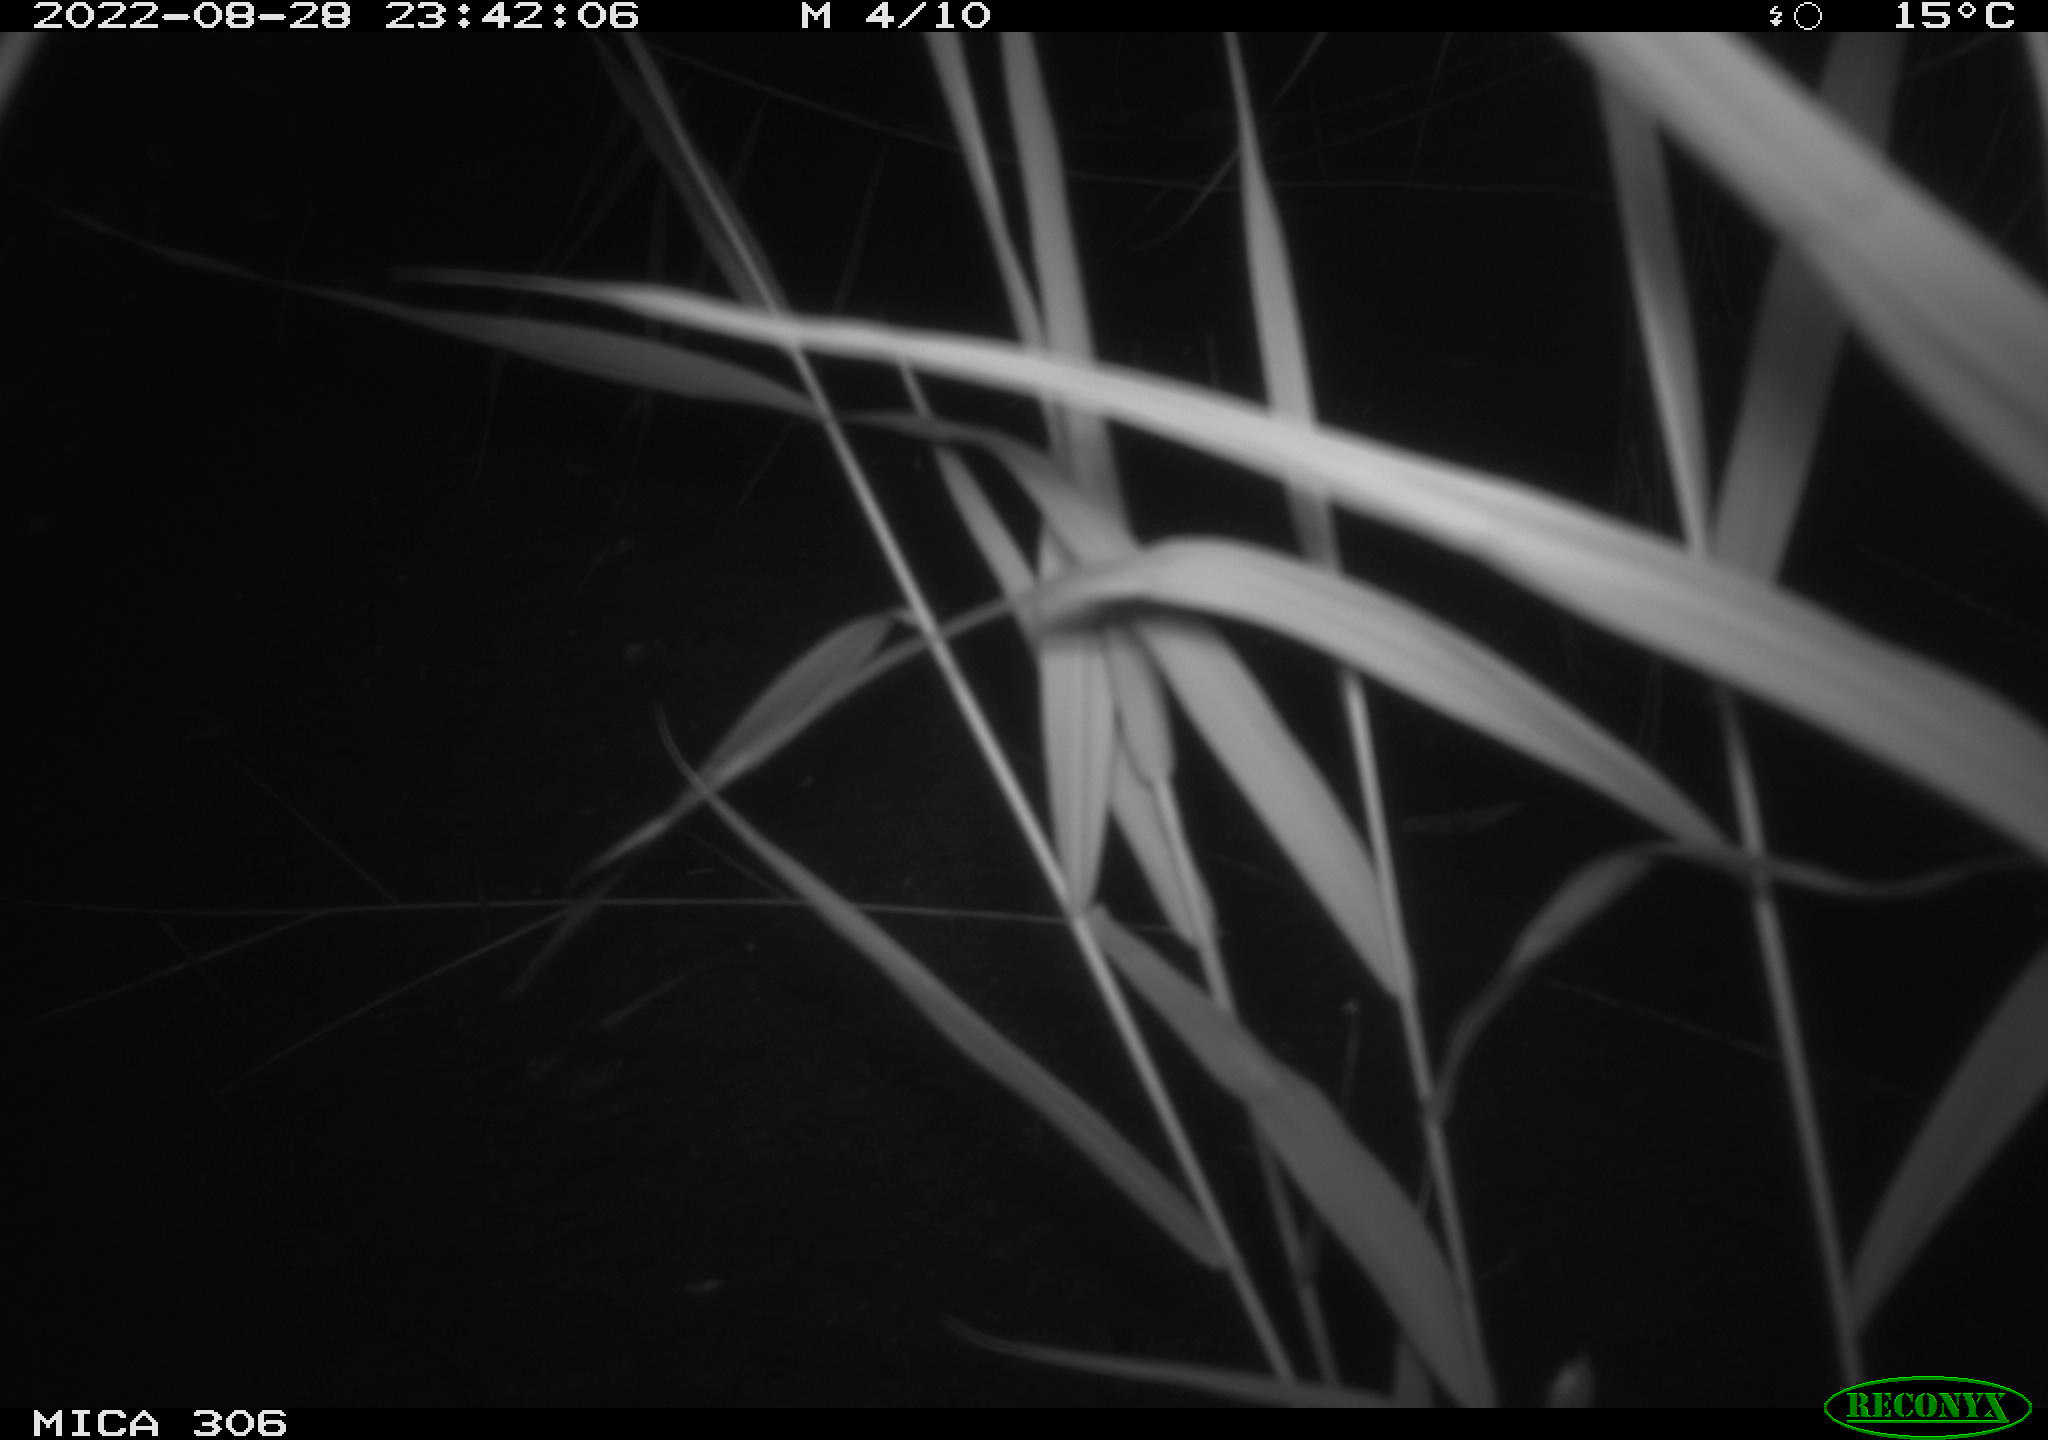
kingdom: Animalia
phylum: Chordata
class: Mammalia
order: Rodentia
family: Muridae
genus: Rattus
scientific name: Rattus norvegicus
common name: Brown rat
